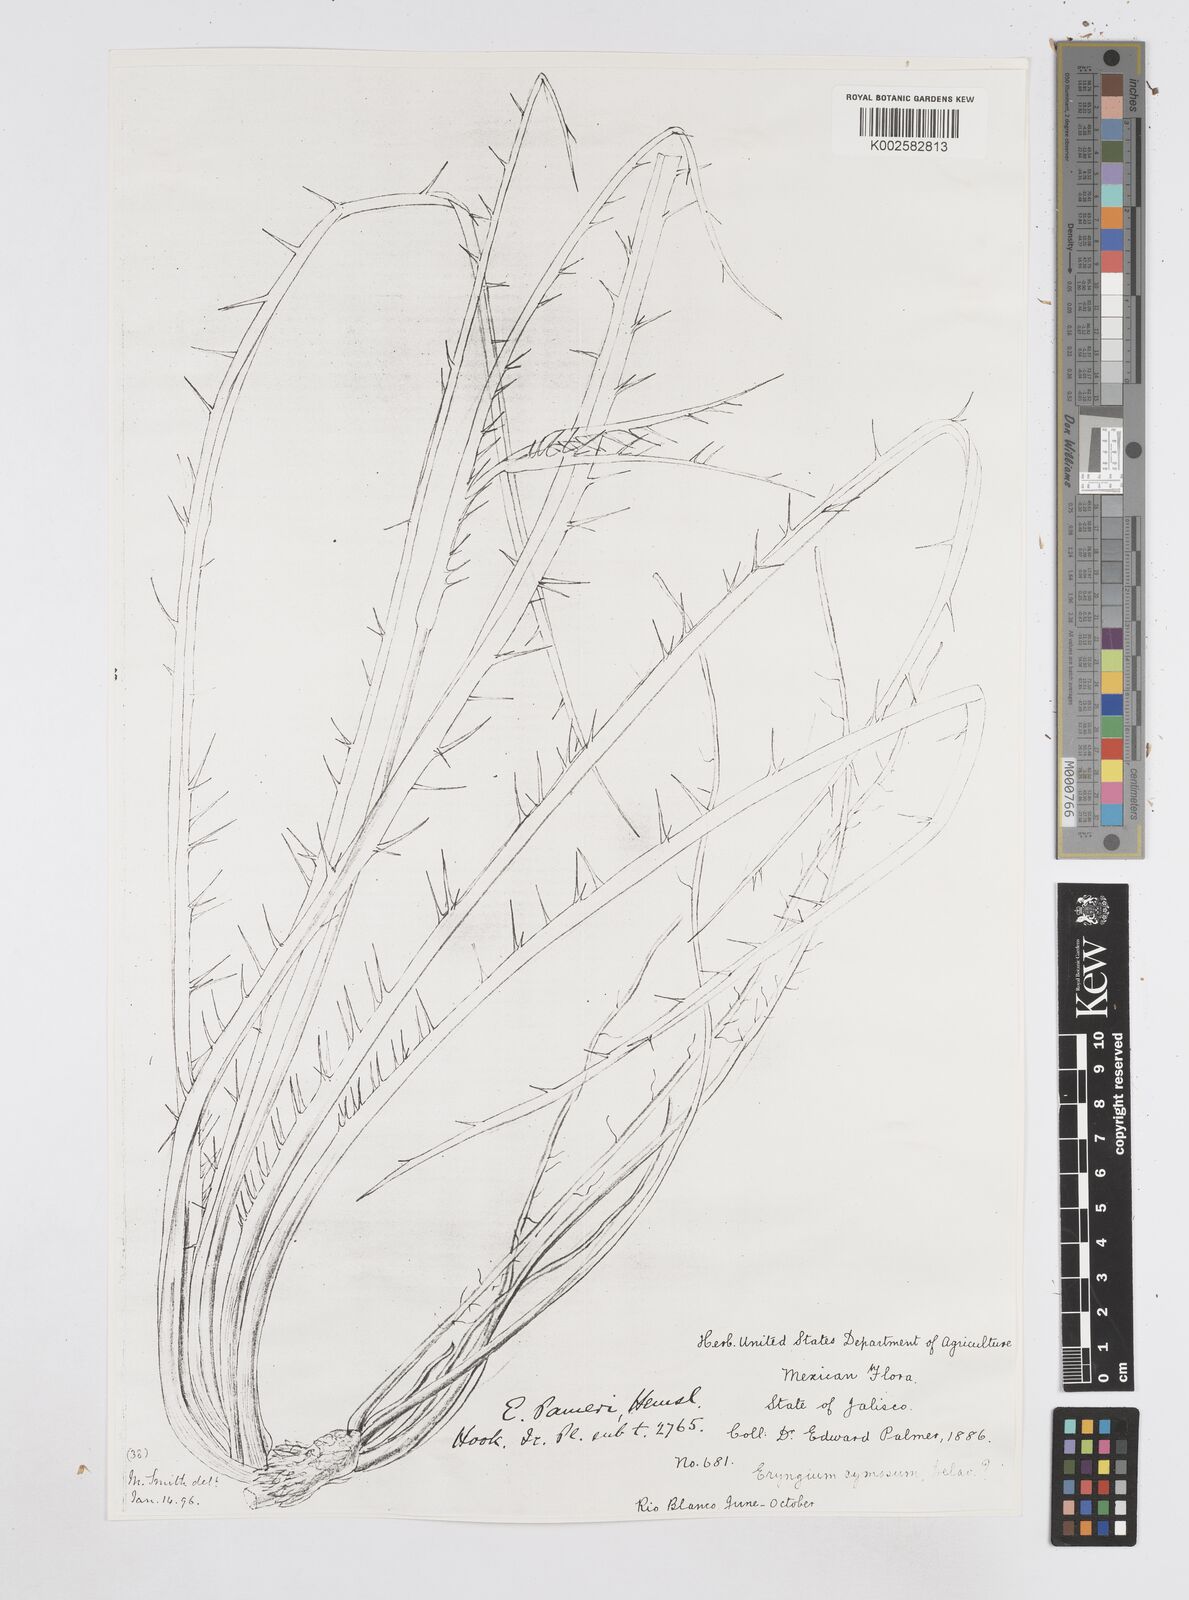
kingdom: Plantae
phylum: Tracheophyta
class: Magnoliopsida
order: Apiales
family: Apiaceae
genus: Eryngium
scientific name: Eryngium cymosum
